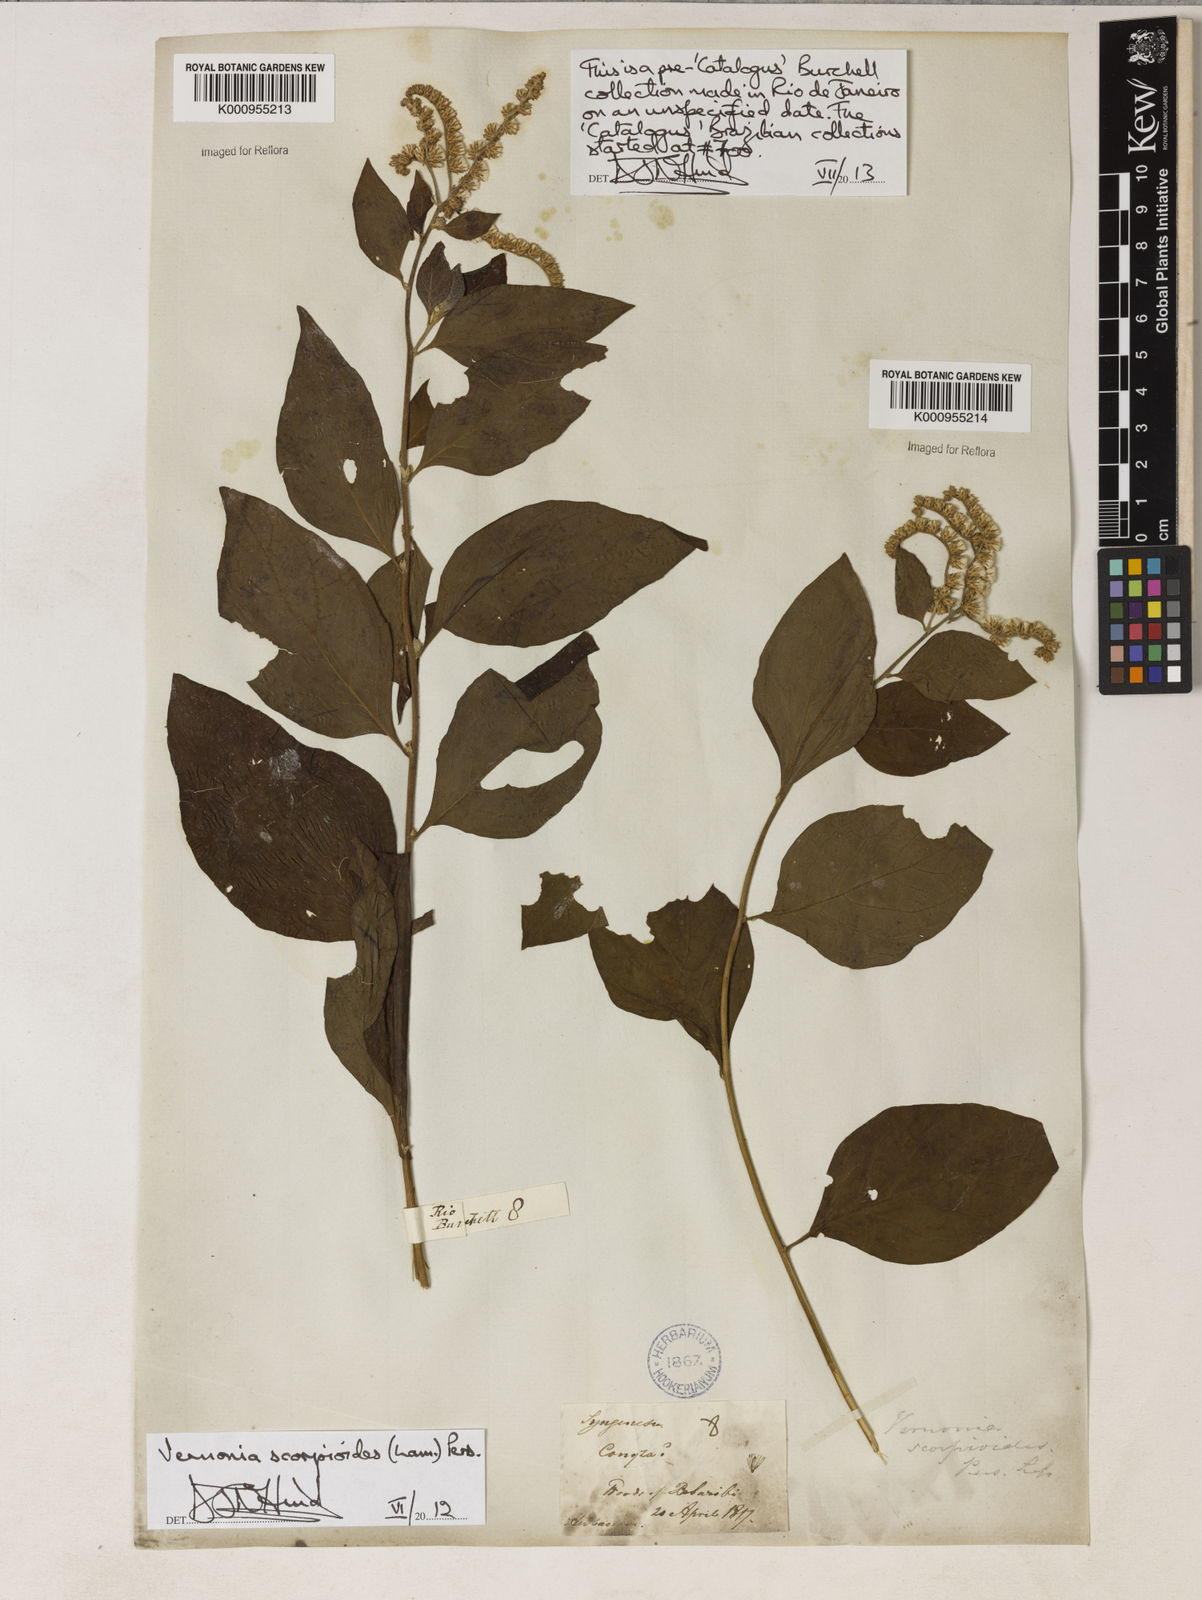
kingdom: Plantae
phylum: Tracheophyta
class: Magnoliopsida
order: Asterales
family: Asteraceae
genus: Cyrtocymura
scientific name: Cyrtocymura scorpioides
